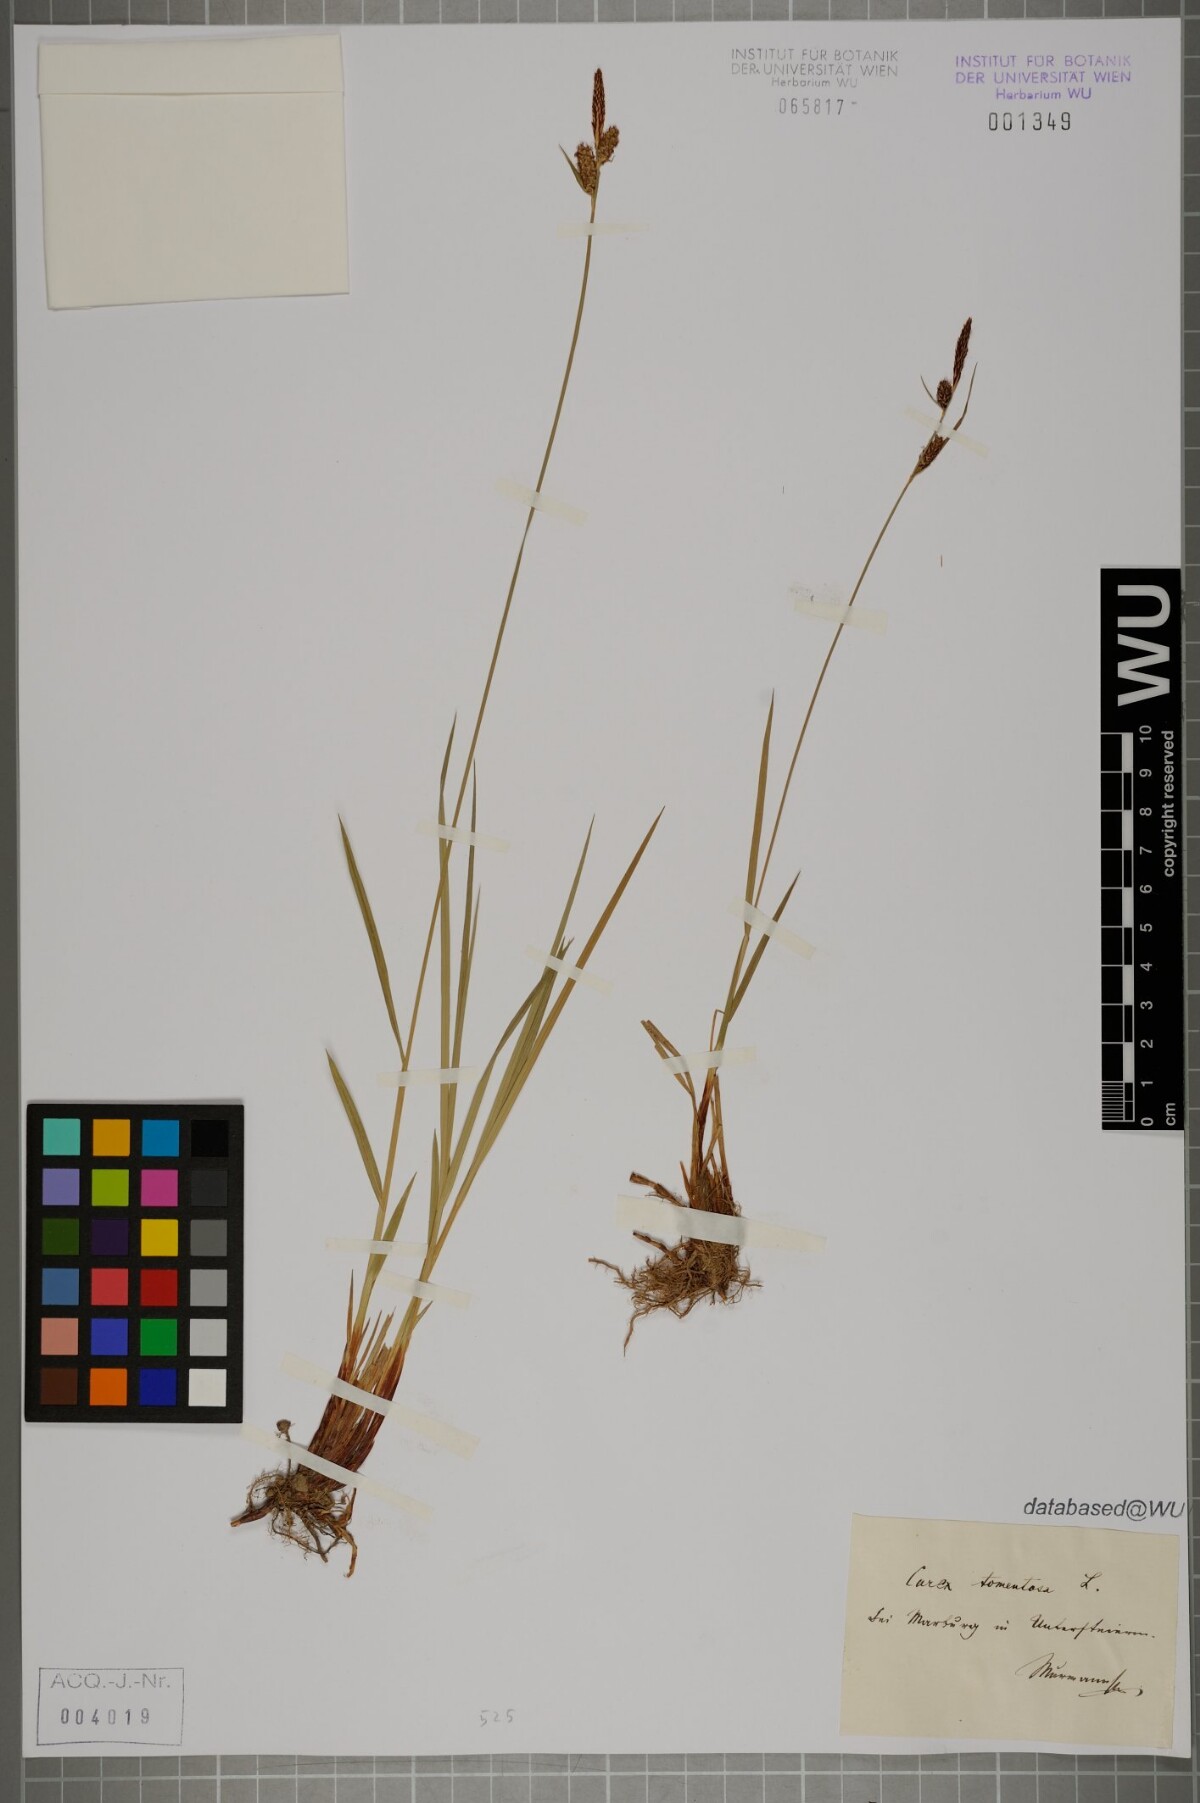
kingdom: Plantae
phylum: Tracheophyta
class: Liliopsida
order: Poales
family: Cyperaceae
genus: Carex
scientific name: Carex tomentosa
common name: Downy-fruited sedge
